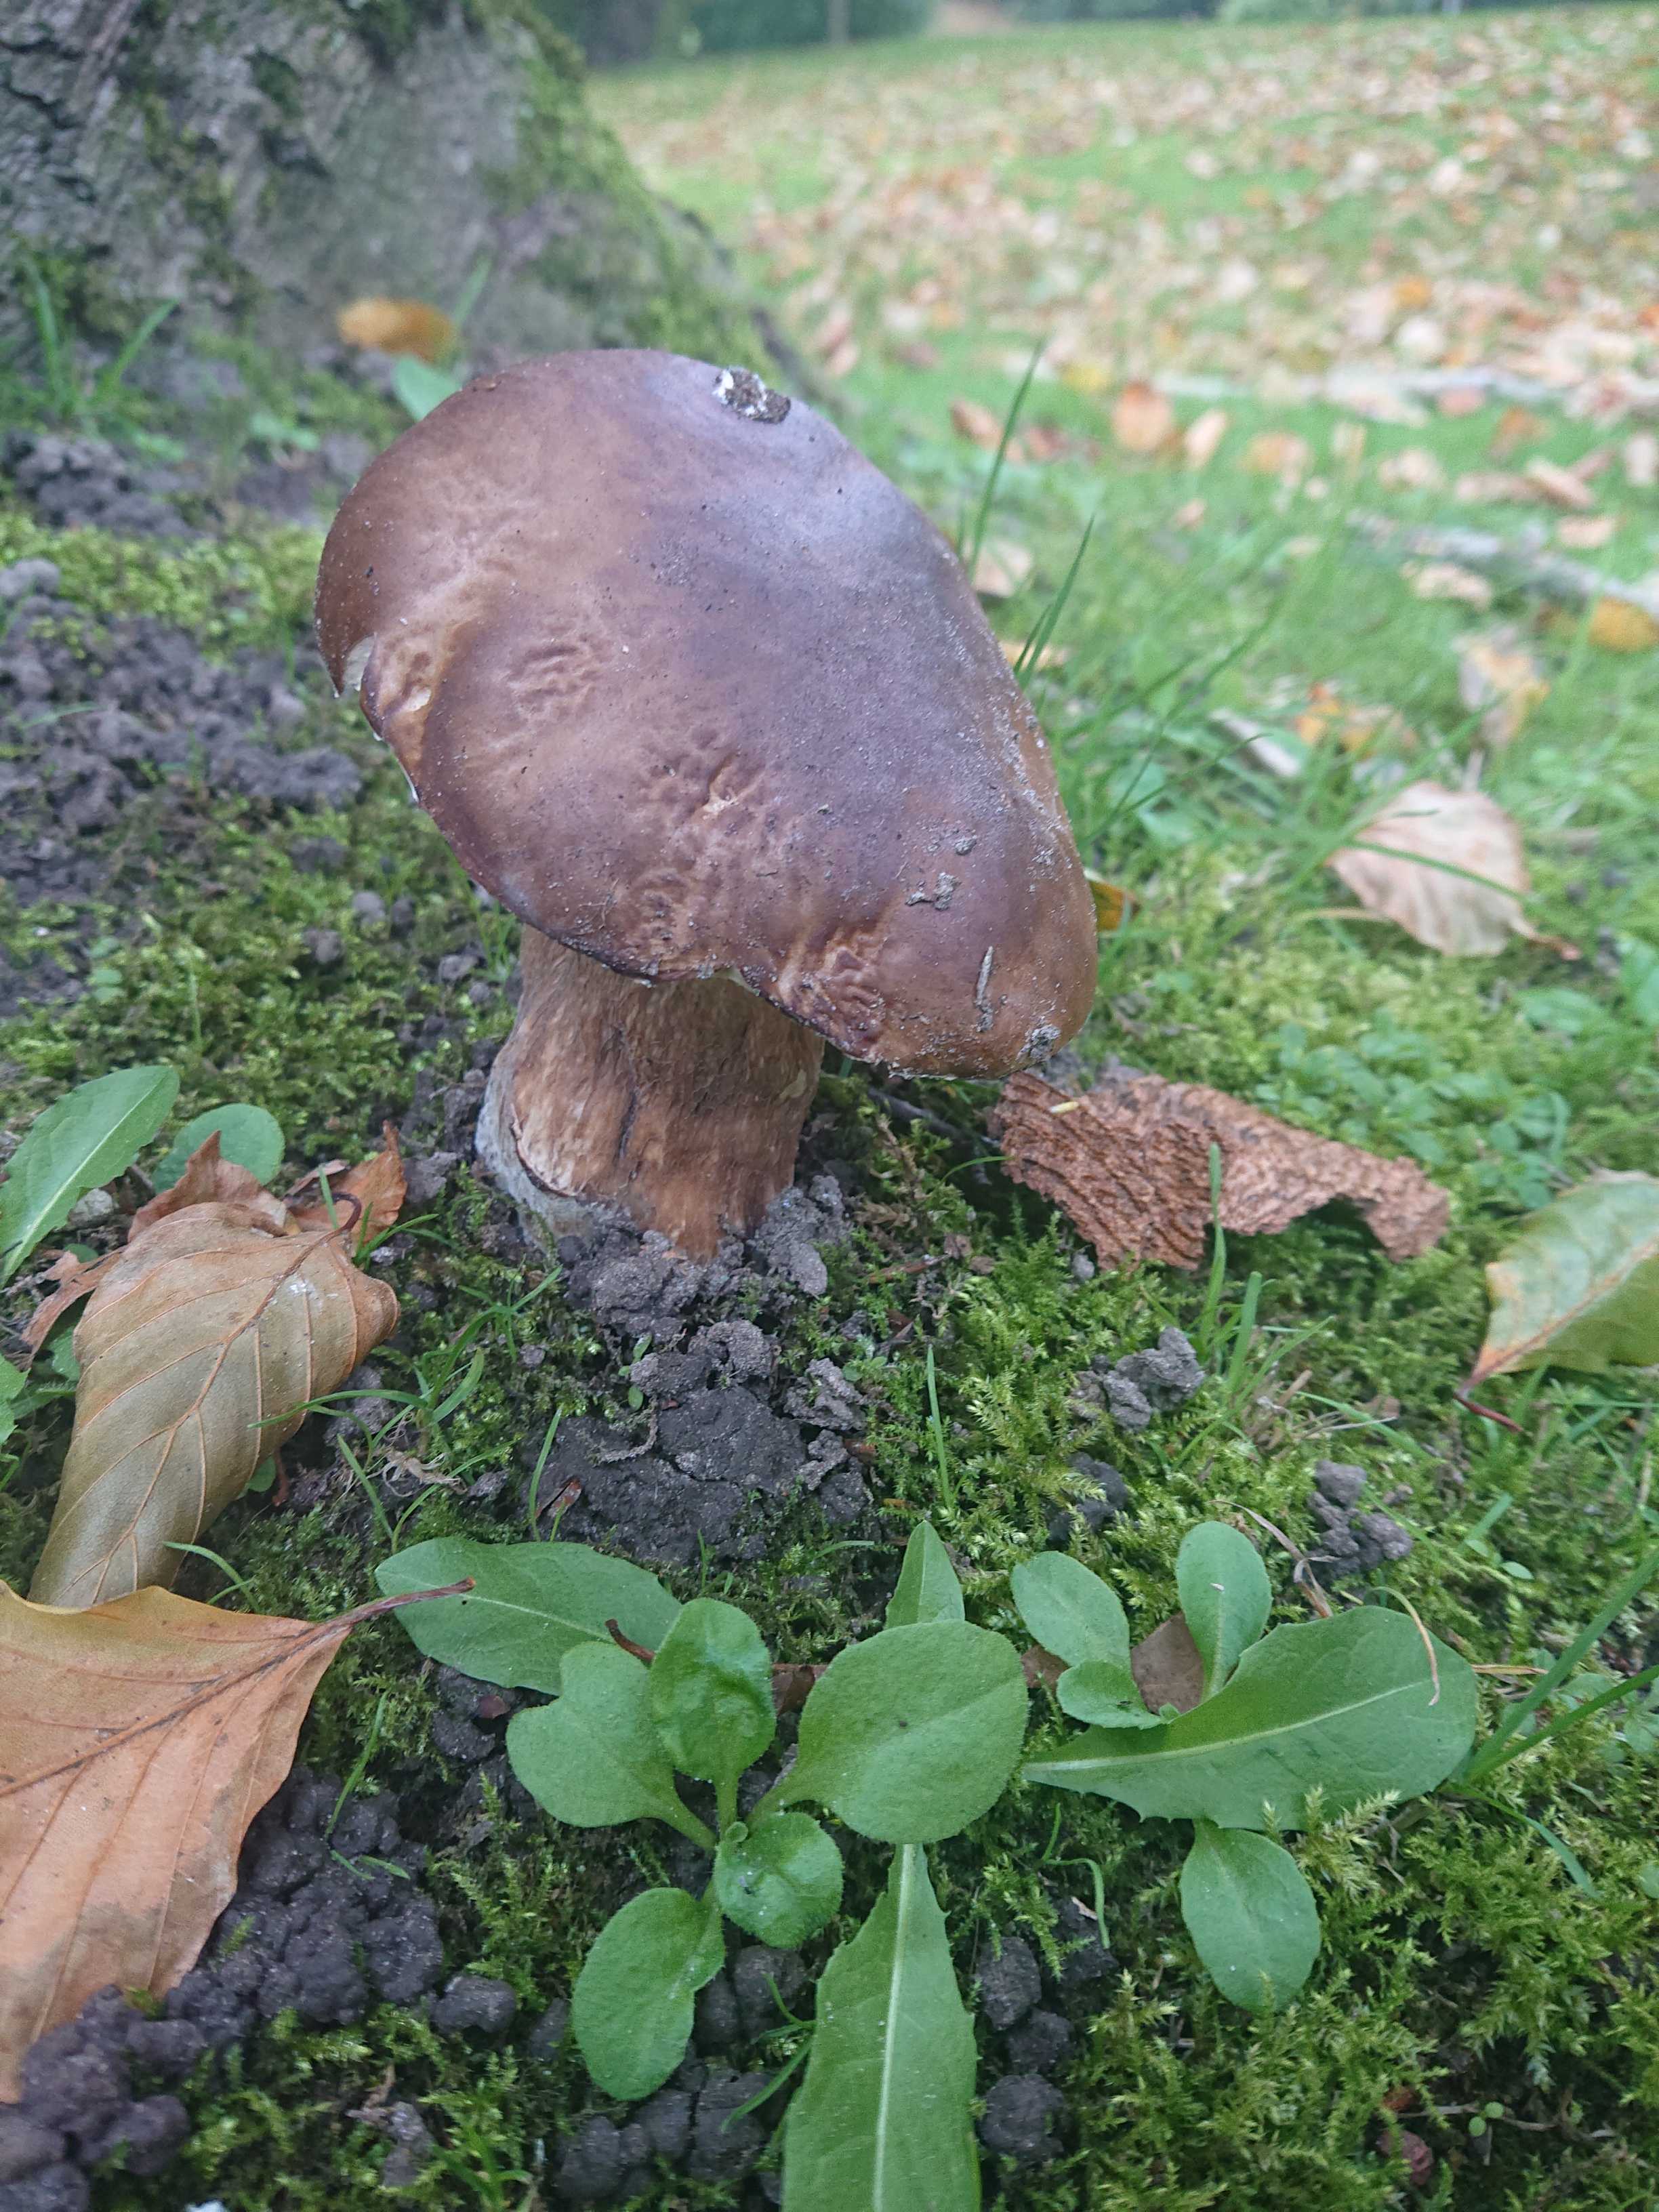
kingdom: Fungi
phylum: Basidiomycota
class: Agaricomycetes
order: Boletales
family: Boletaceae
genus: Boletus
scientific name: Boletus
